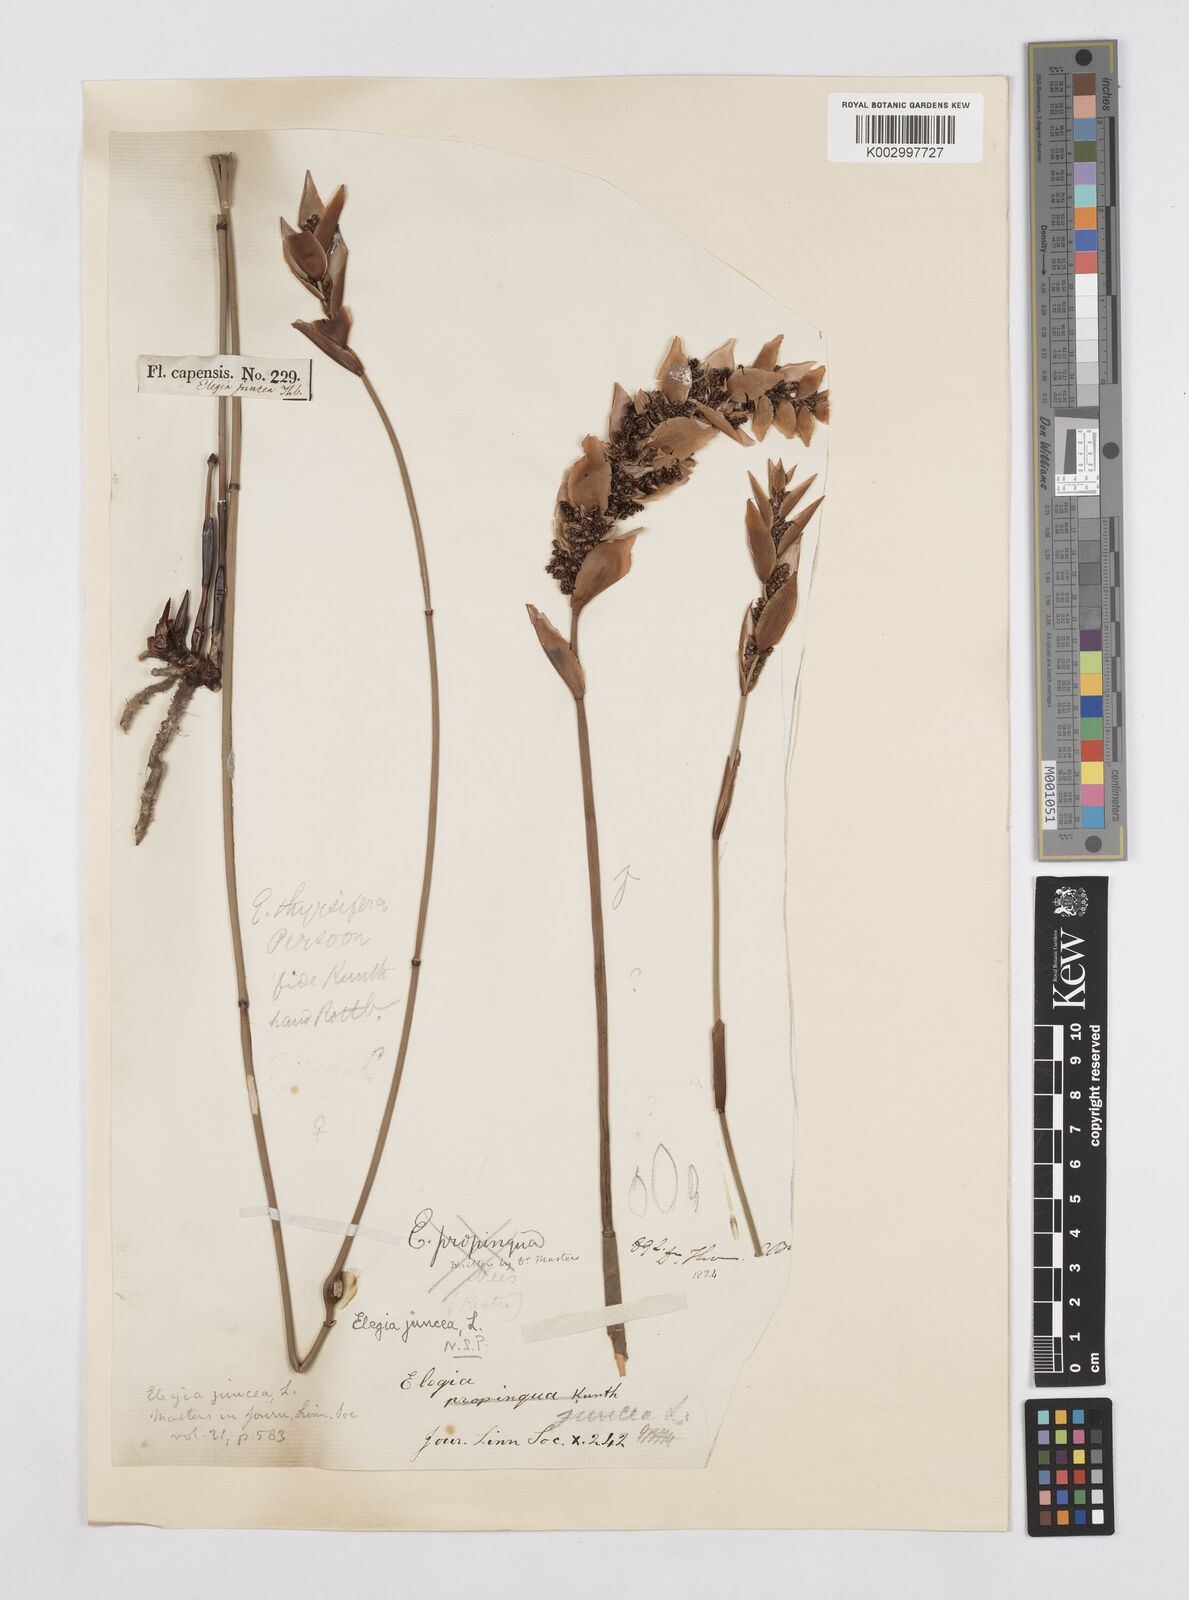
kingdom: Plantae
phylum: Tracheophyta
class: Liliopsida
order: Poales
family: Restionaceae
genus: Elegia
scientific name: Elegia juncea
